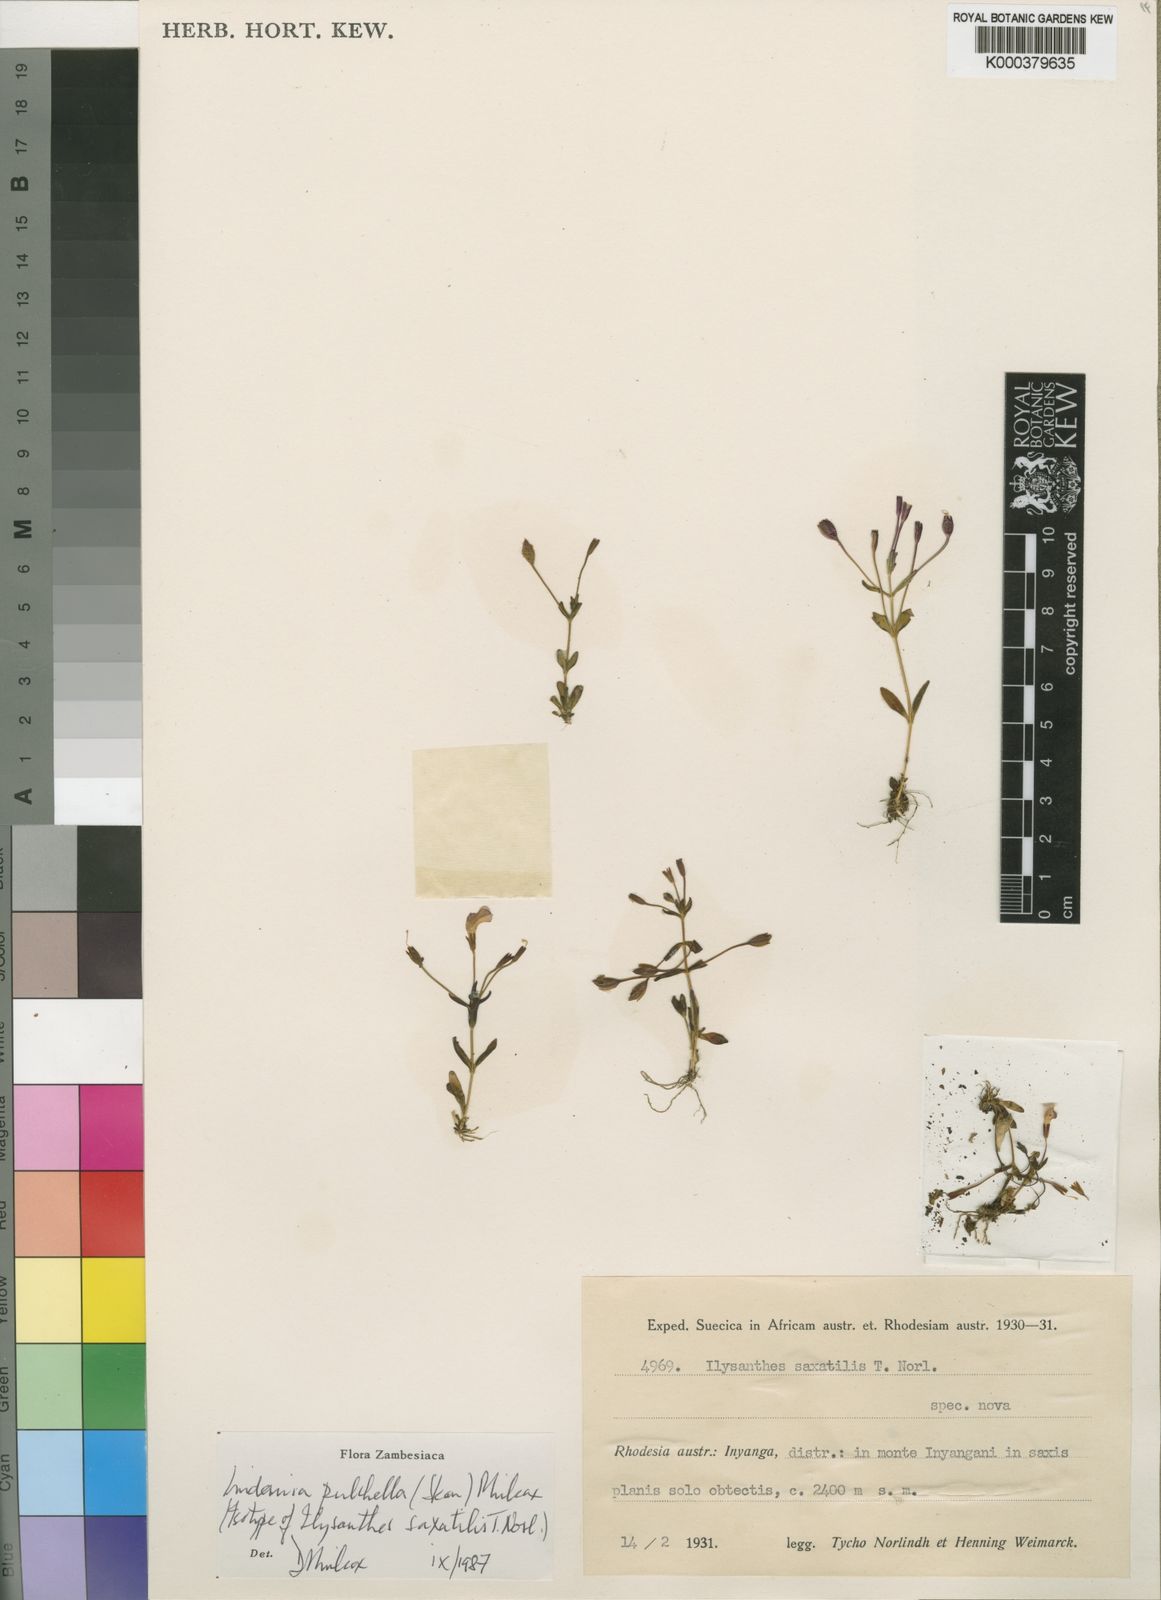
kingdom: Plantae
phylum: Tracheophyta
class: Magnoliopsida
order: Lamiales
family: Linderniaceae
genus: Linderniella
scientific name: Linderniella pulchella
